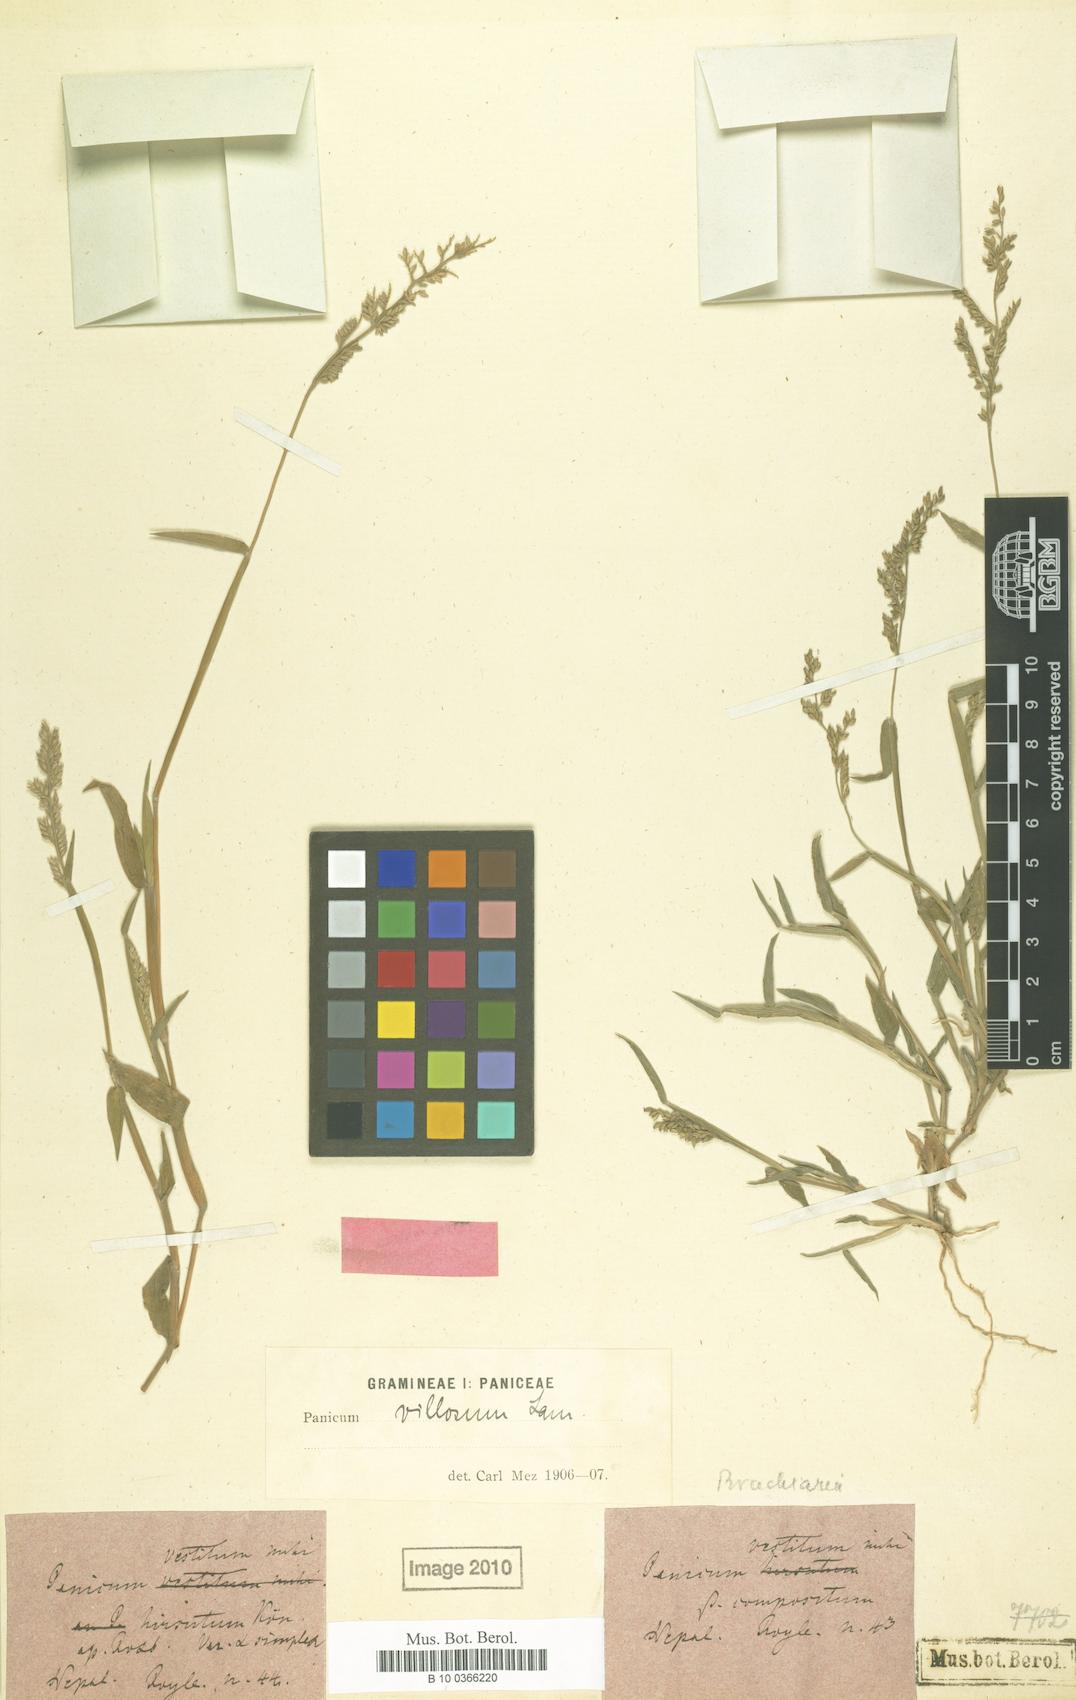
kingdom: Plantae
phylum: Tracheophyta
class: Liliopsida
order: Poales
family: Poaceae
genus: Urochloa
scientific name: Urochloa villosa
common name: Hairy signalgrass
